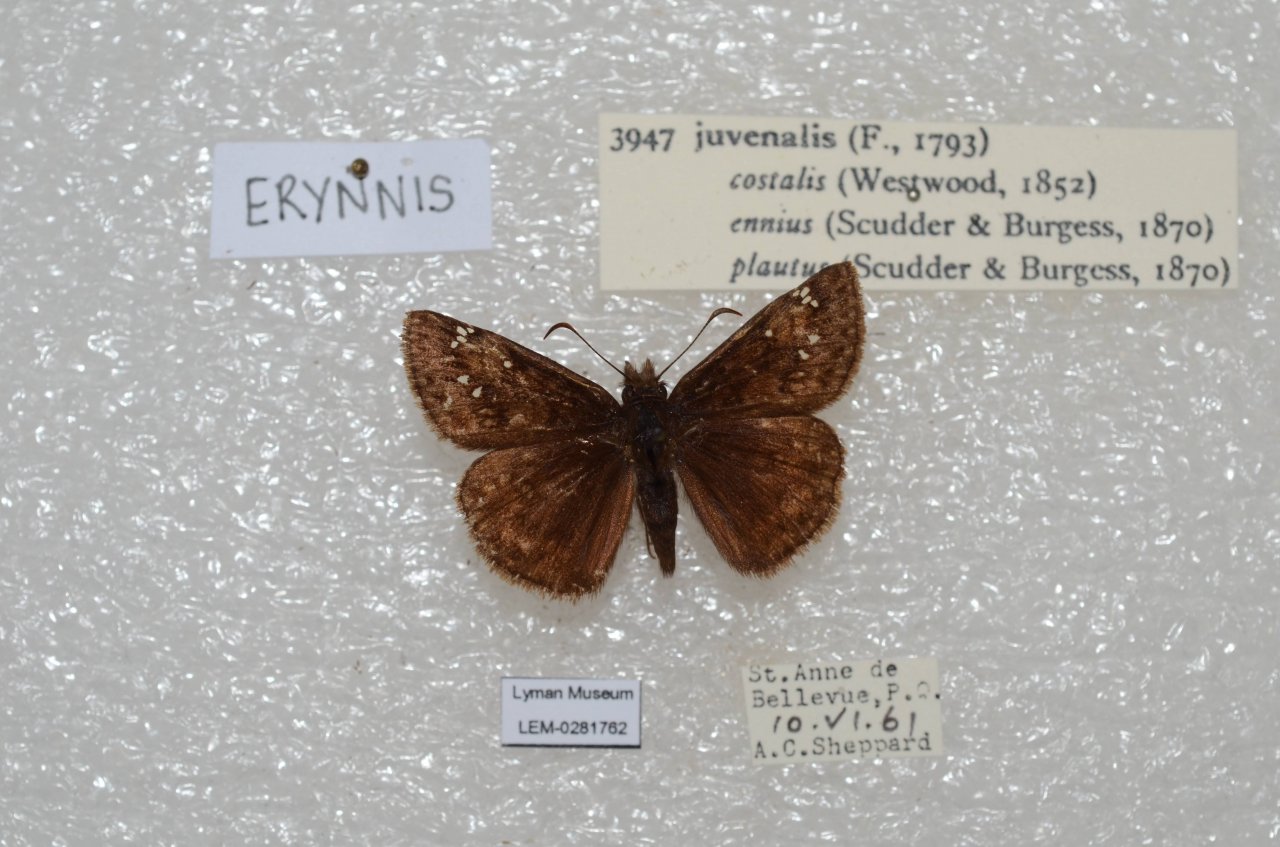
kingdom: Animalia
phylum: Arthropoda
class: Insecta
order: Lepidoptera
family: Hesperiidae
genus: Gesta
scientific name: Gesta
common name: Juvenal's Duskywing
